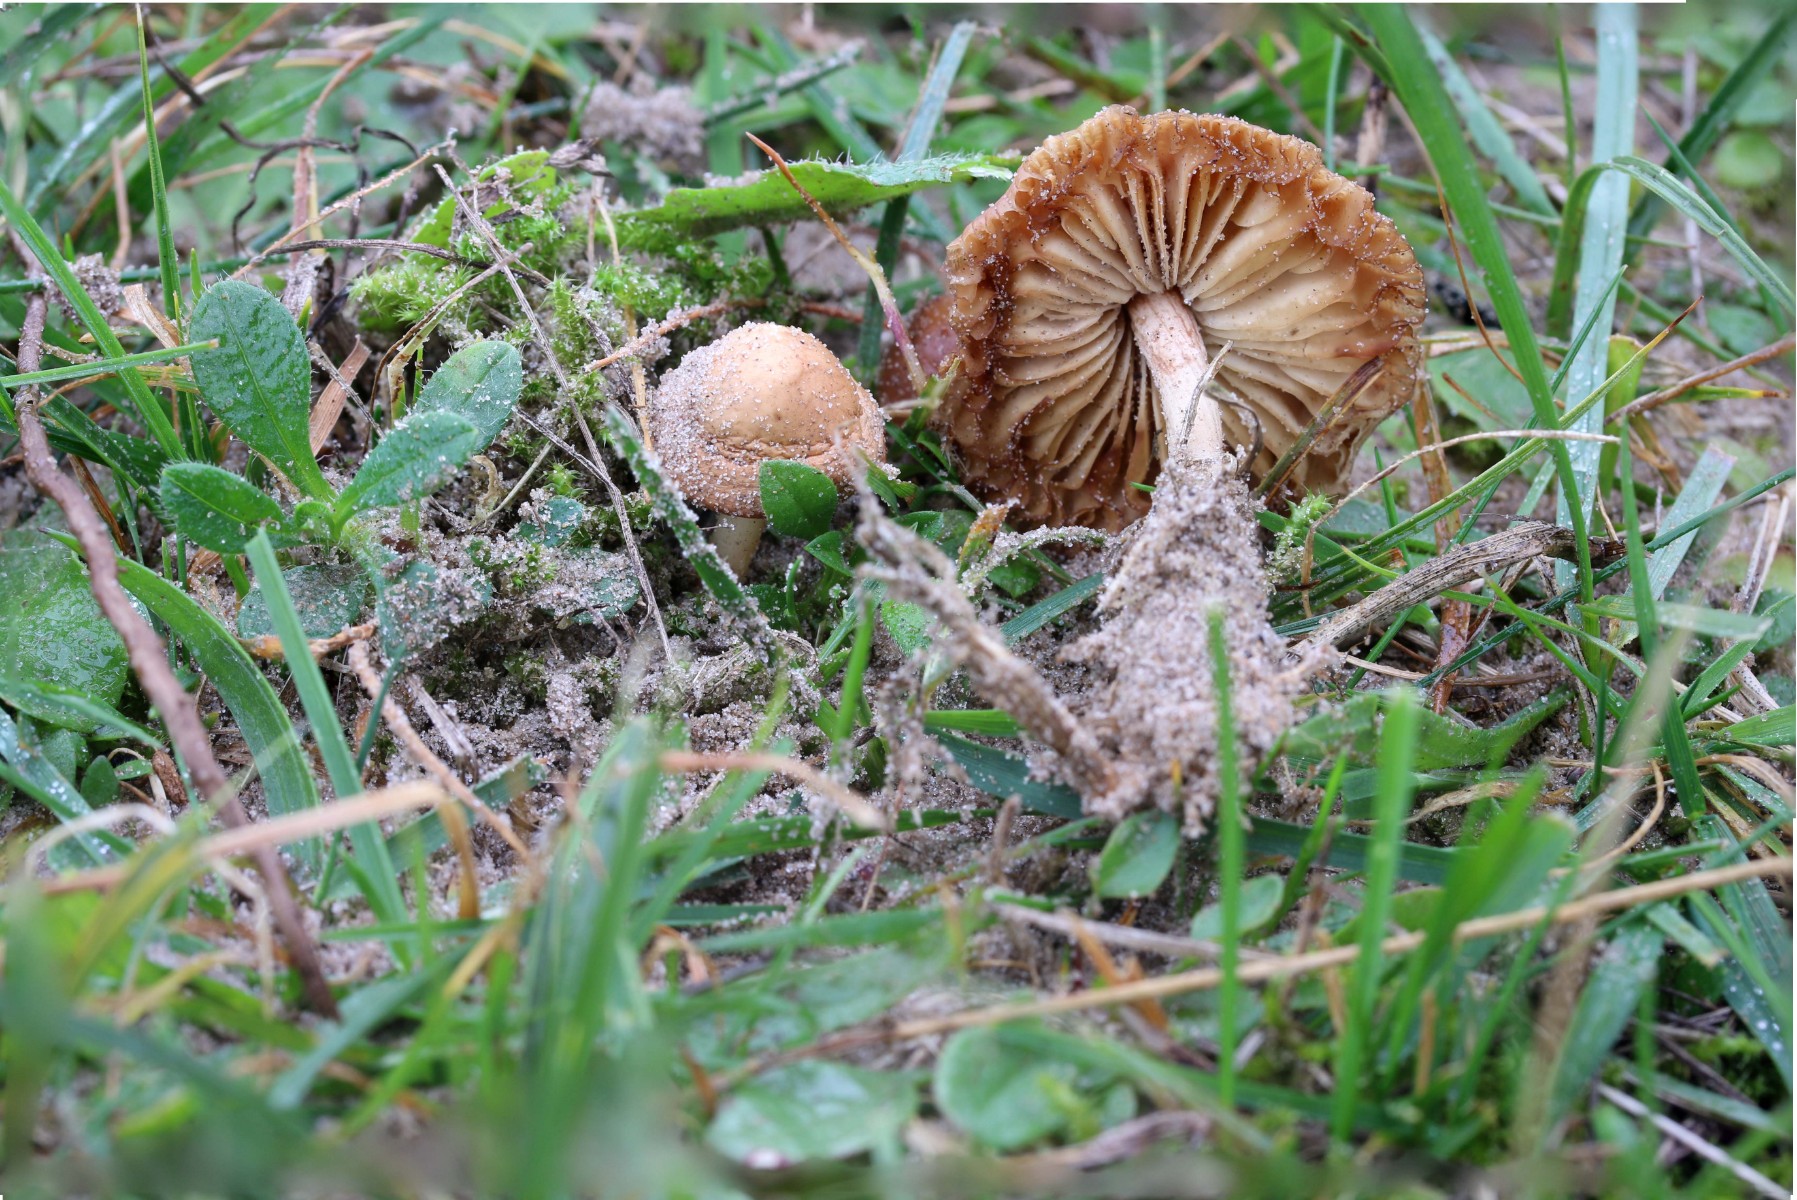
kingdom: Fungi
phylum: Basidiomycota
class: Agaricomycetes
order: Agaricales
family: Marasmiaceae
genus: Marasmius
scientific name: Marasmius oreades
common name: elledans-bruskhat
